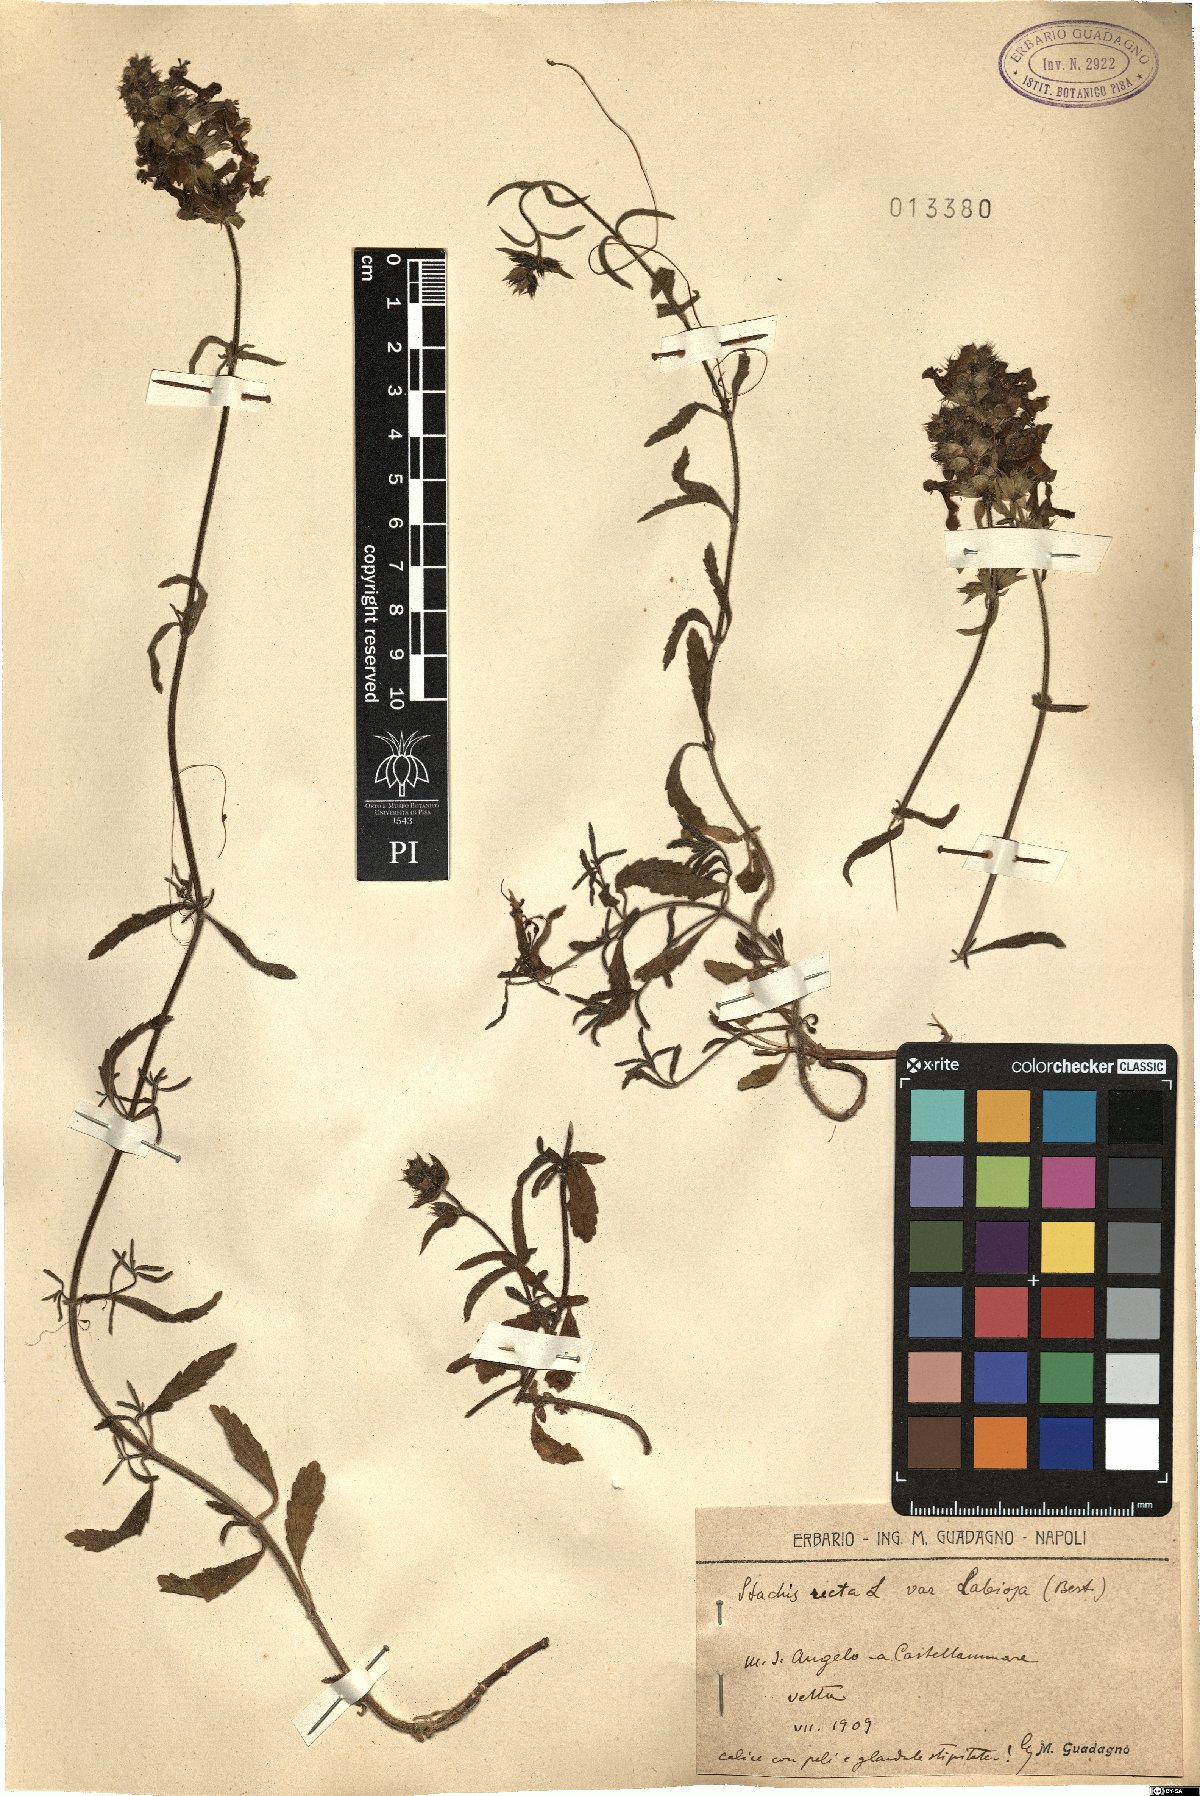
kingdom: Plantae
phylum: Tracheophyta
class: Magnoliopsida
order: Lamiales
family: Lamiaceae
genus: Stachys
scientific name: Stachys recta
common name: Perennial yellow-woundwort
